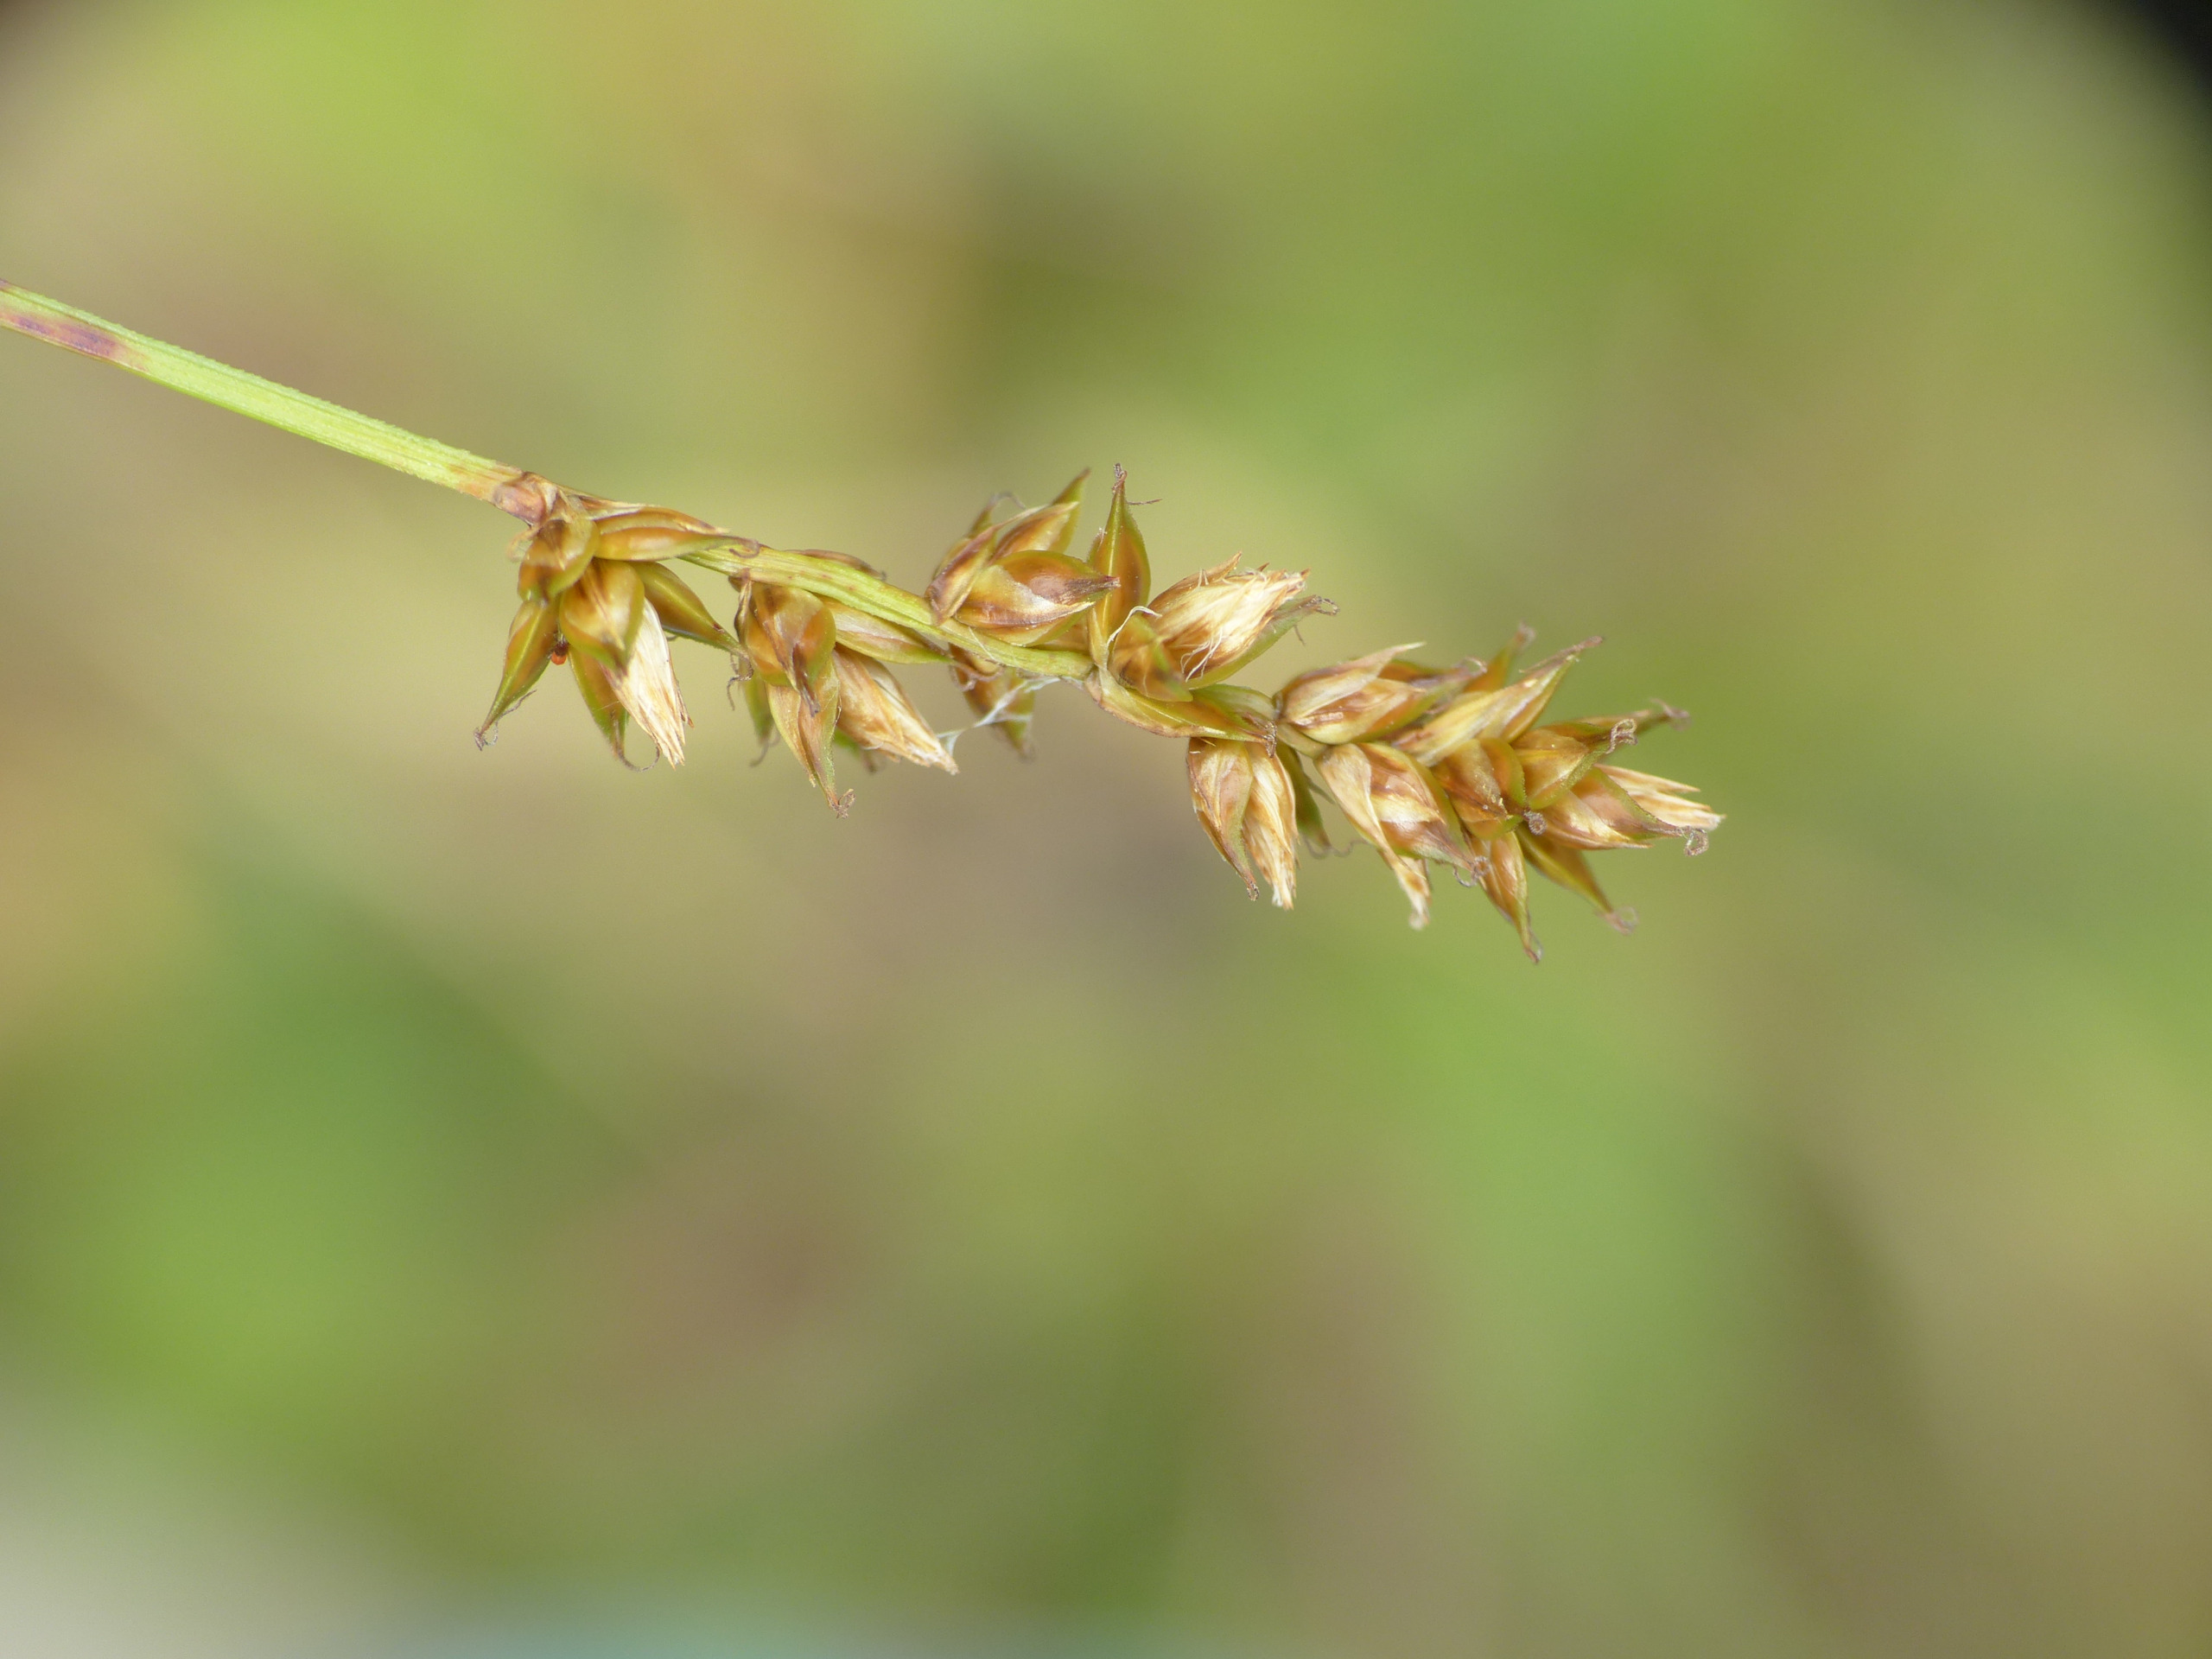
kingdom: Plantae
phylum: Tracheophyta
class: Liliopsida
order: Poales
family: Cyperaceae
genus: Carex
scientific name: Carex pairae
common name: Pigget star
